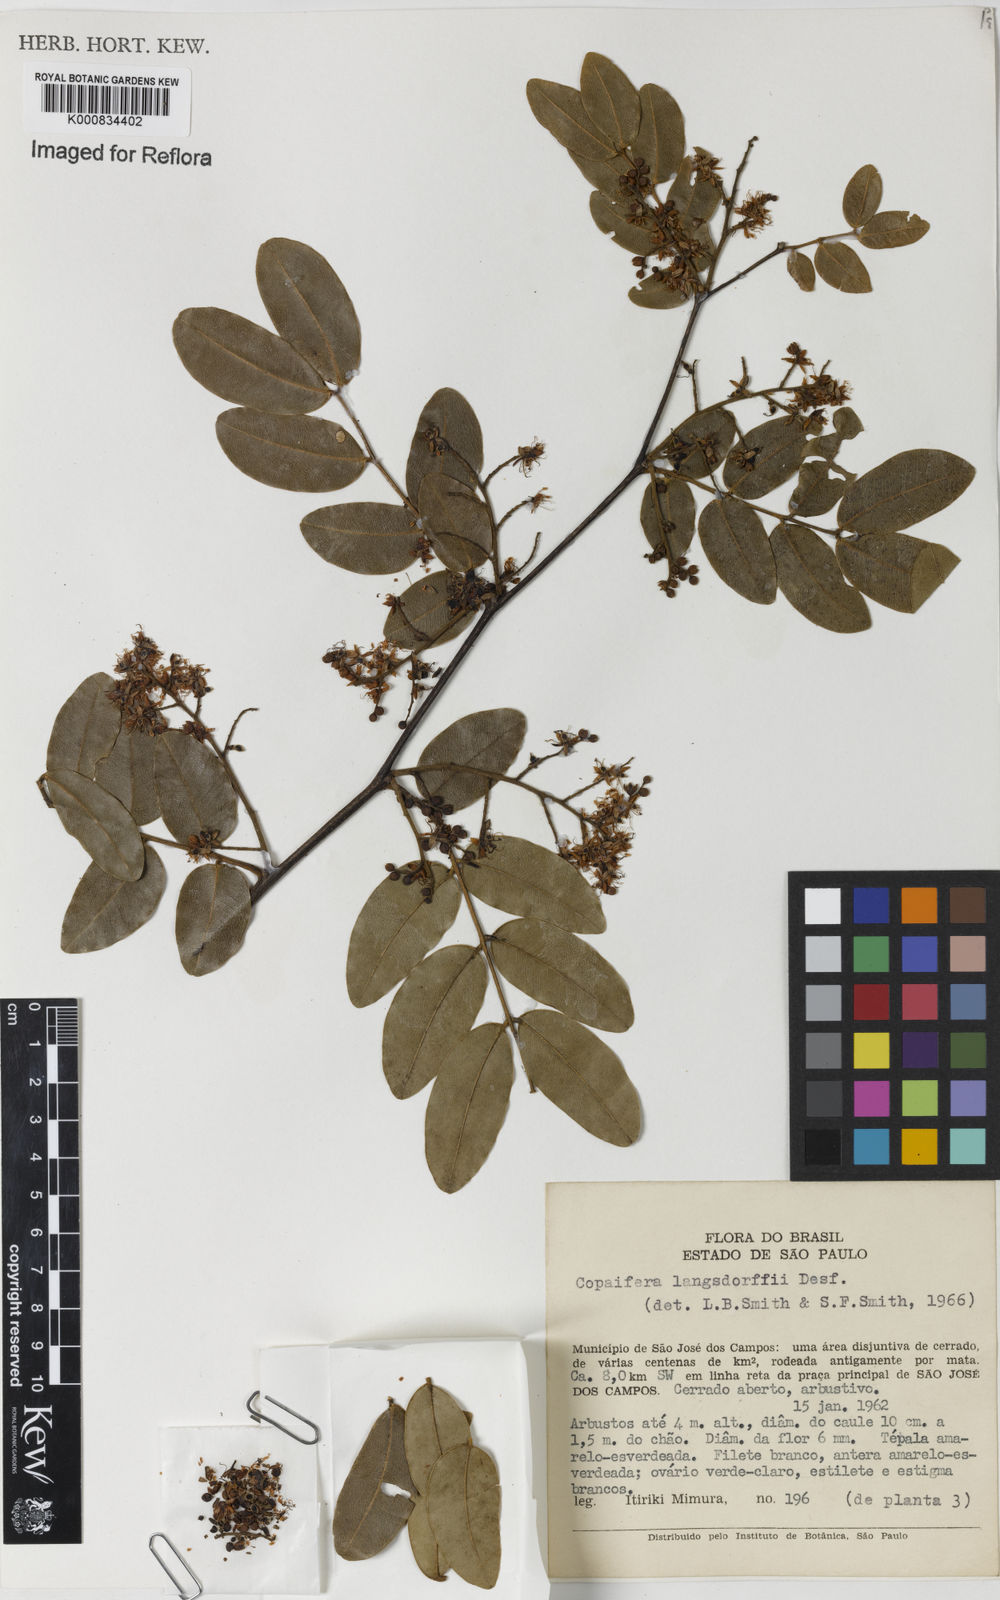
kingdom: Plantae
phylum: Tracheophyta
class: Magnoliopsida
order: Fabales
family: Fabaceae
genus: Copaifera
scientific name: Copaifera langsdorffii
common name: Brazilian diesel tree
